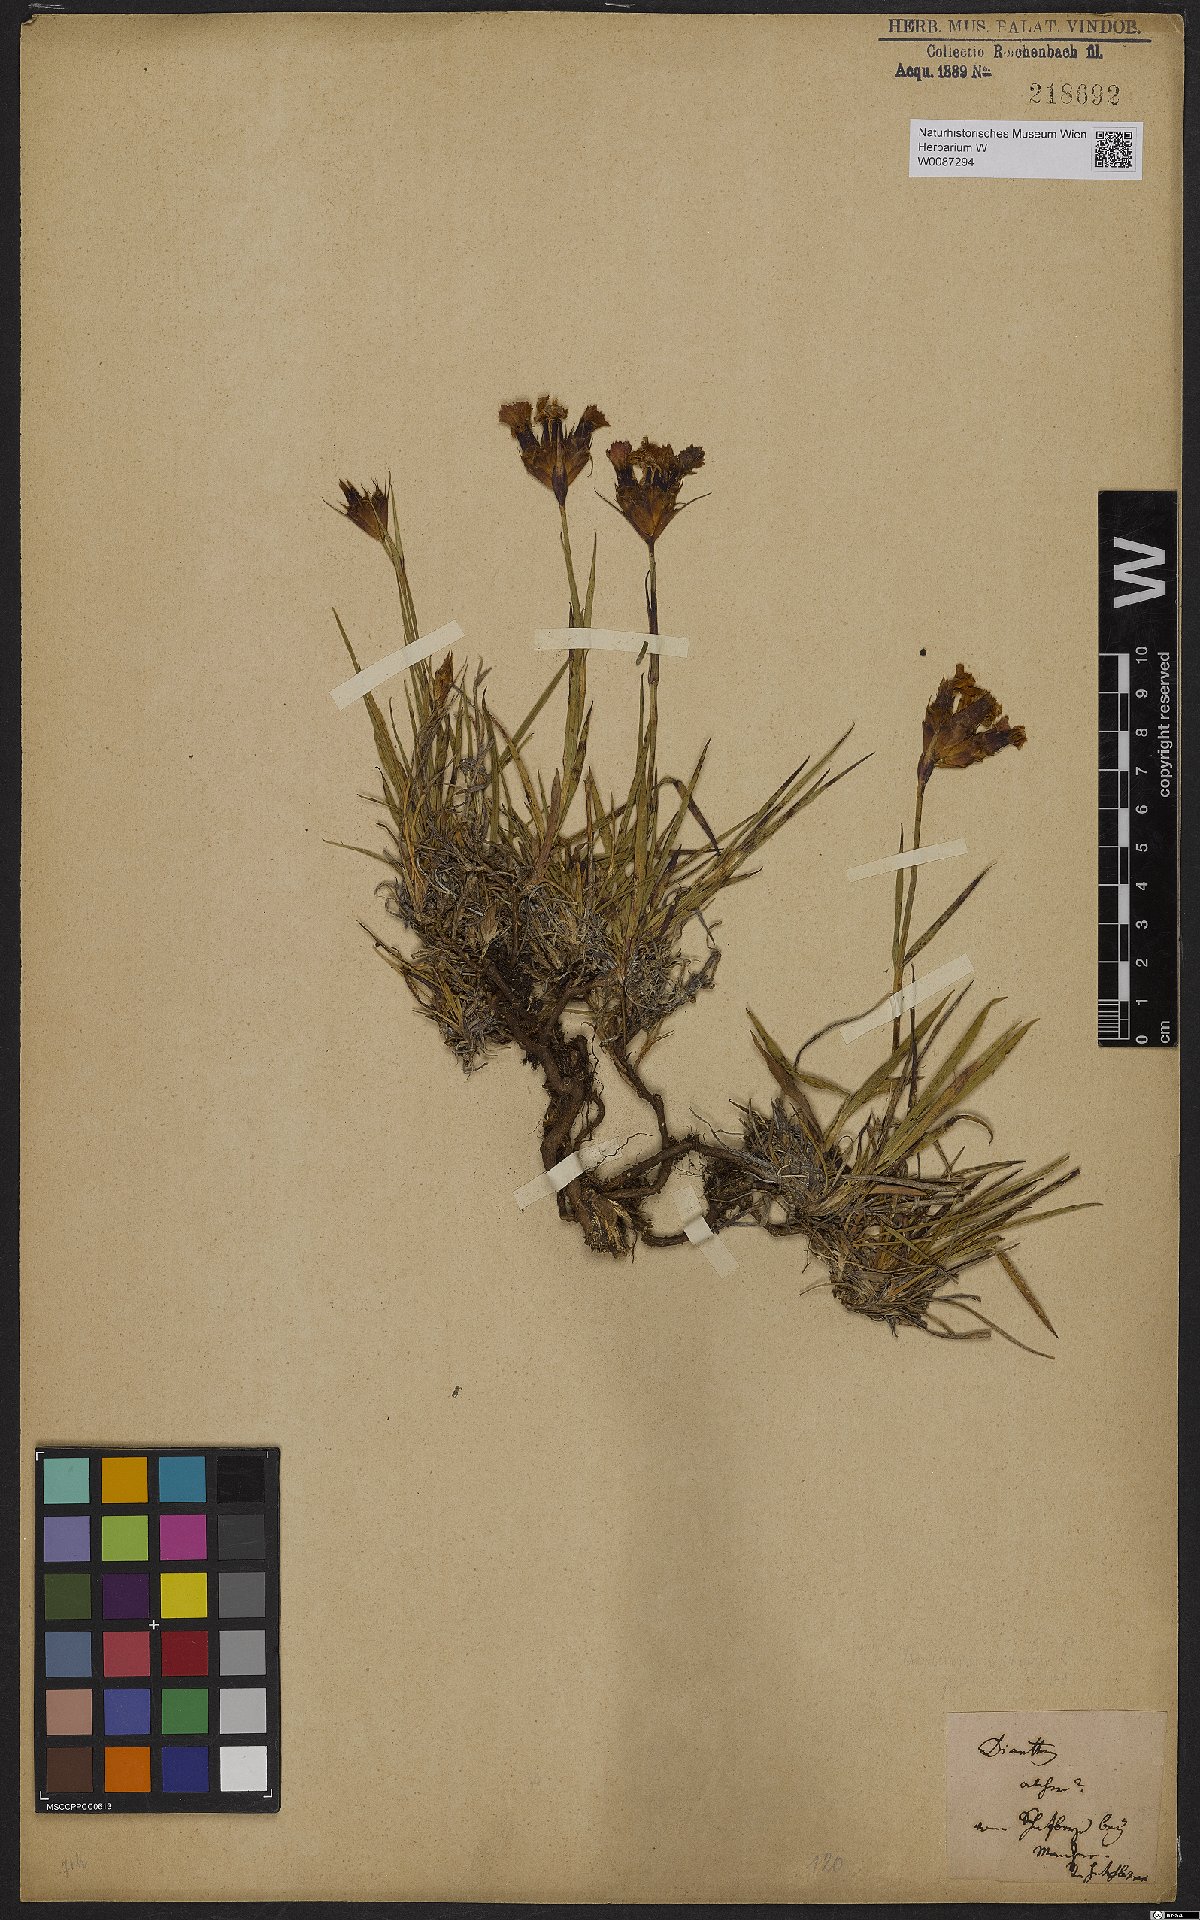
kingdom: Plantae
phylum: Tracheophyta
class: Magnoliopsida
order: Caryophyllales
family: Caryophyllaceae
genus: Dianthus
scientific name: Dianthus
